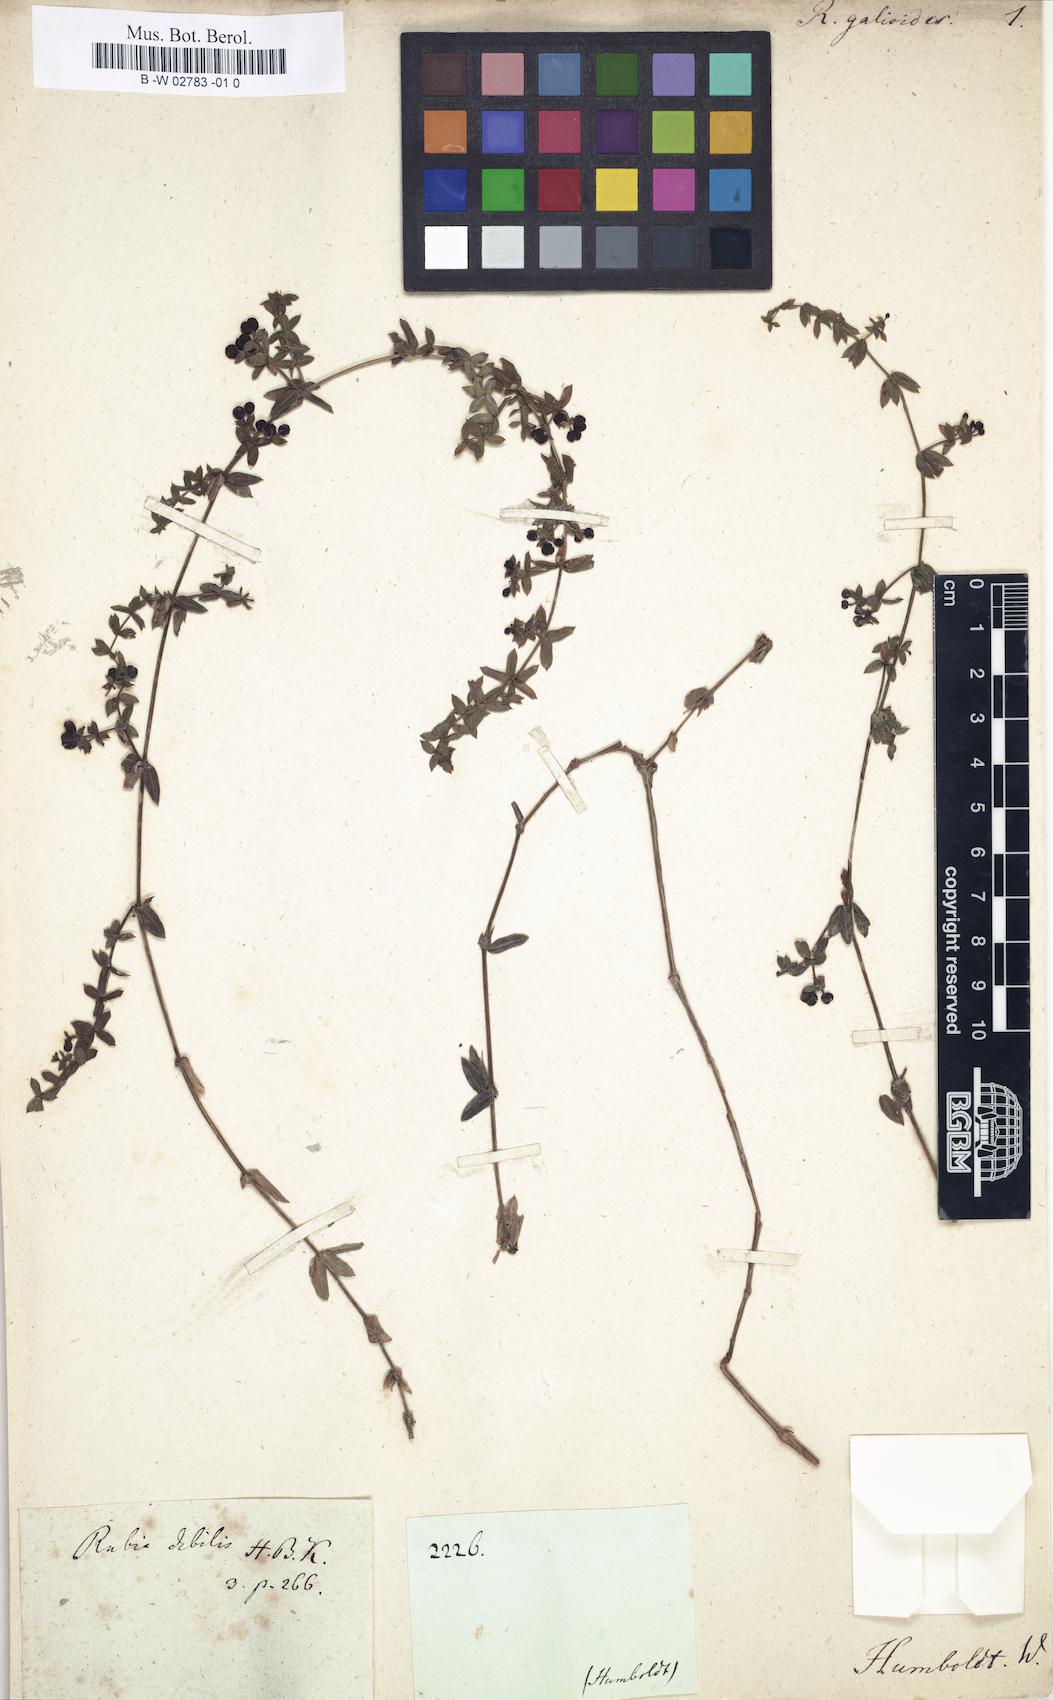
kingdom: Plantae
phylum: Tracheophyta
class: Magnoliopsida
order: Gentianales
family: Rubiaceae
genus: Rubia
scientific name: Rubia fruticosa
